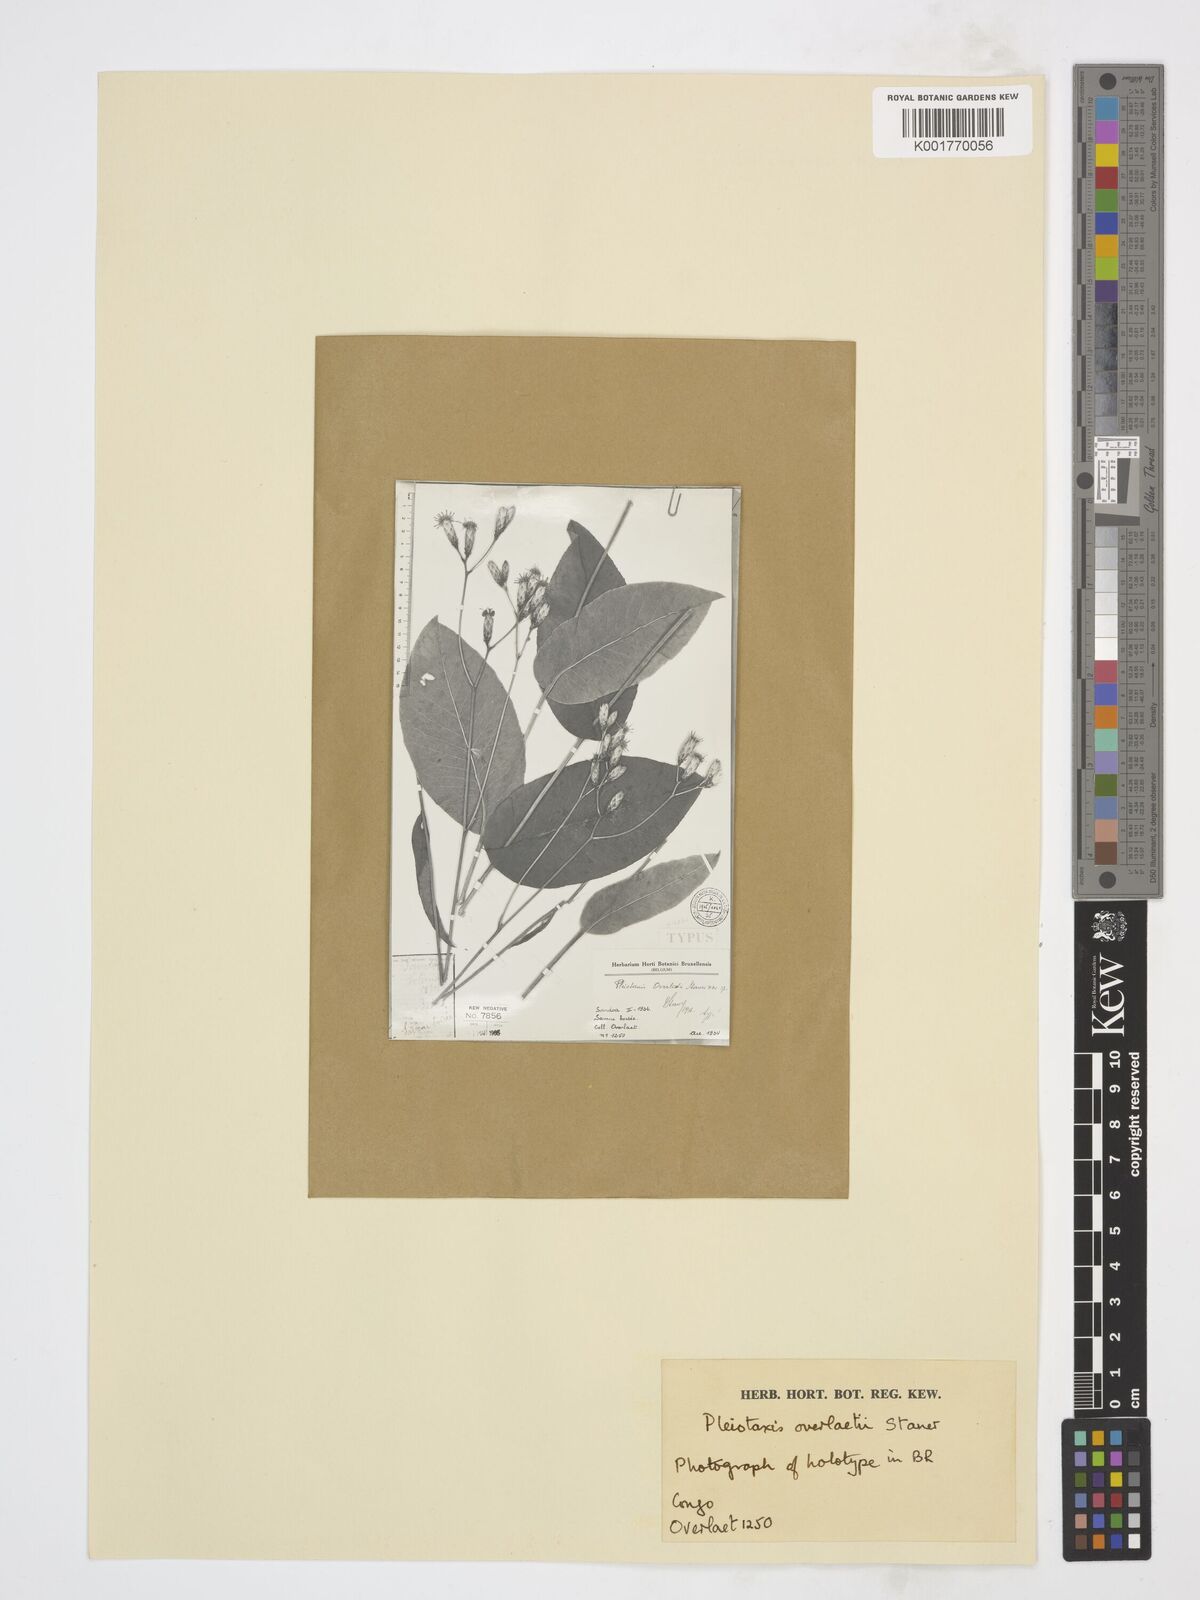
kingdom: Plantae
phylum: Tracheophyta
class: Magnoliopsida
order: Asterales
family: Asteraceae
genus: Pleiotaxis
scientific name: Pleiotaxis overlaetii
